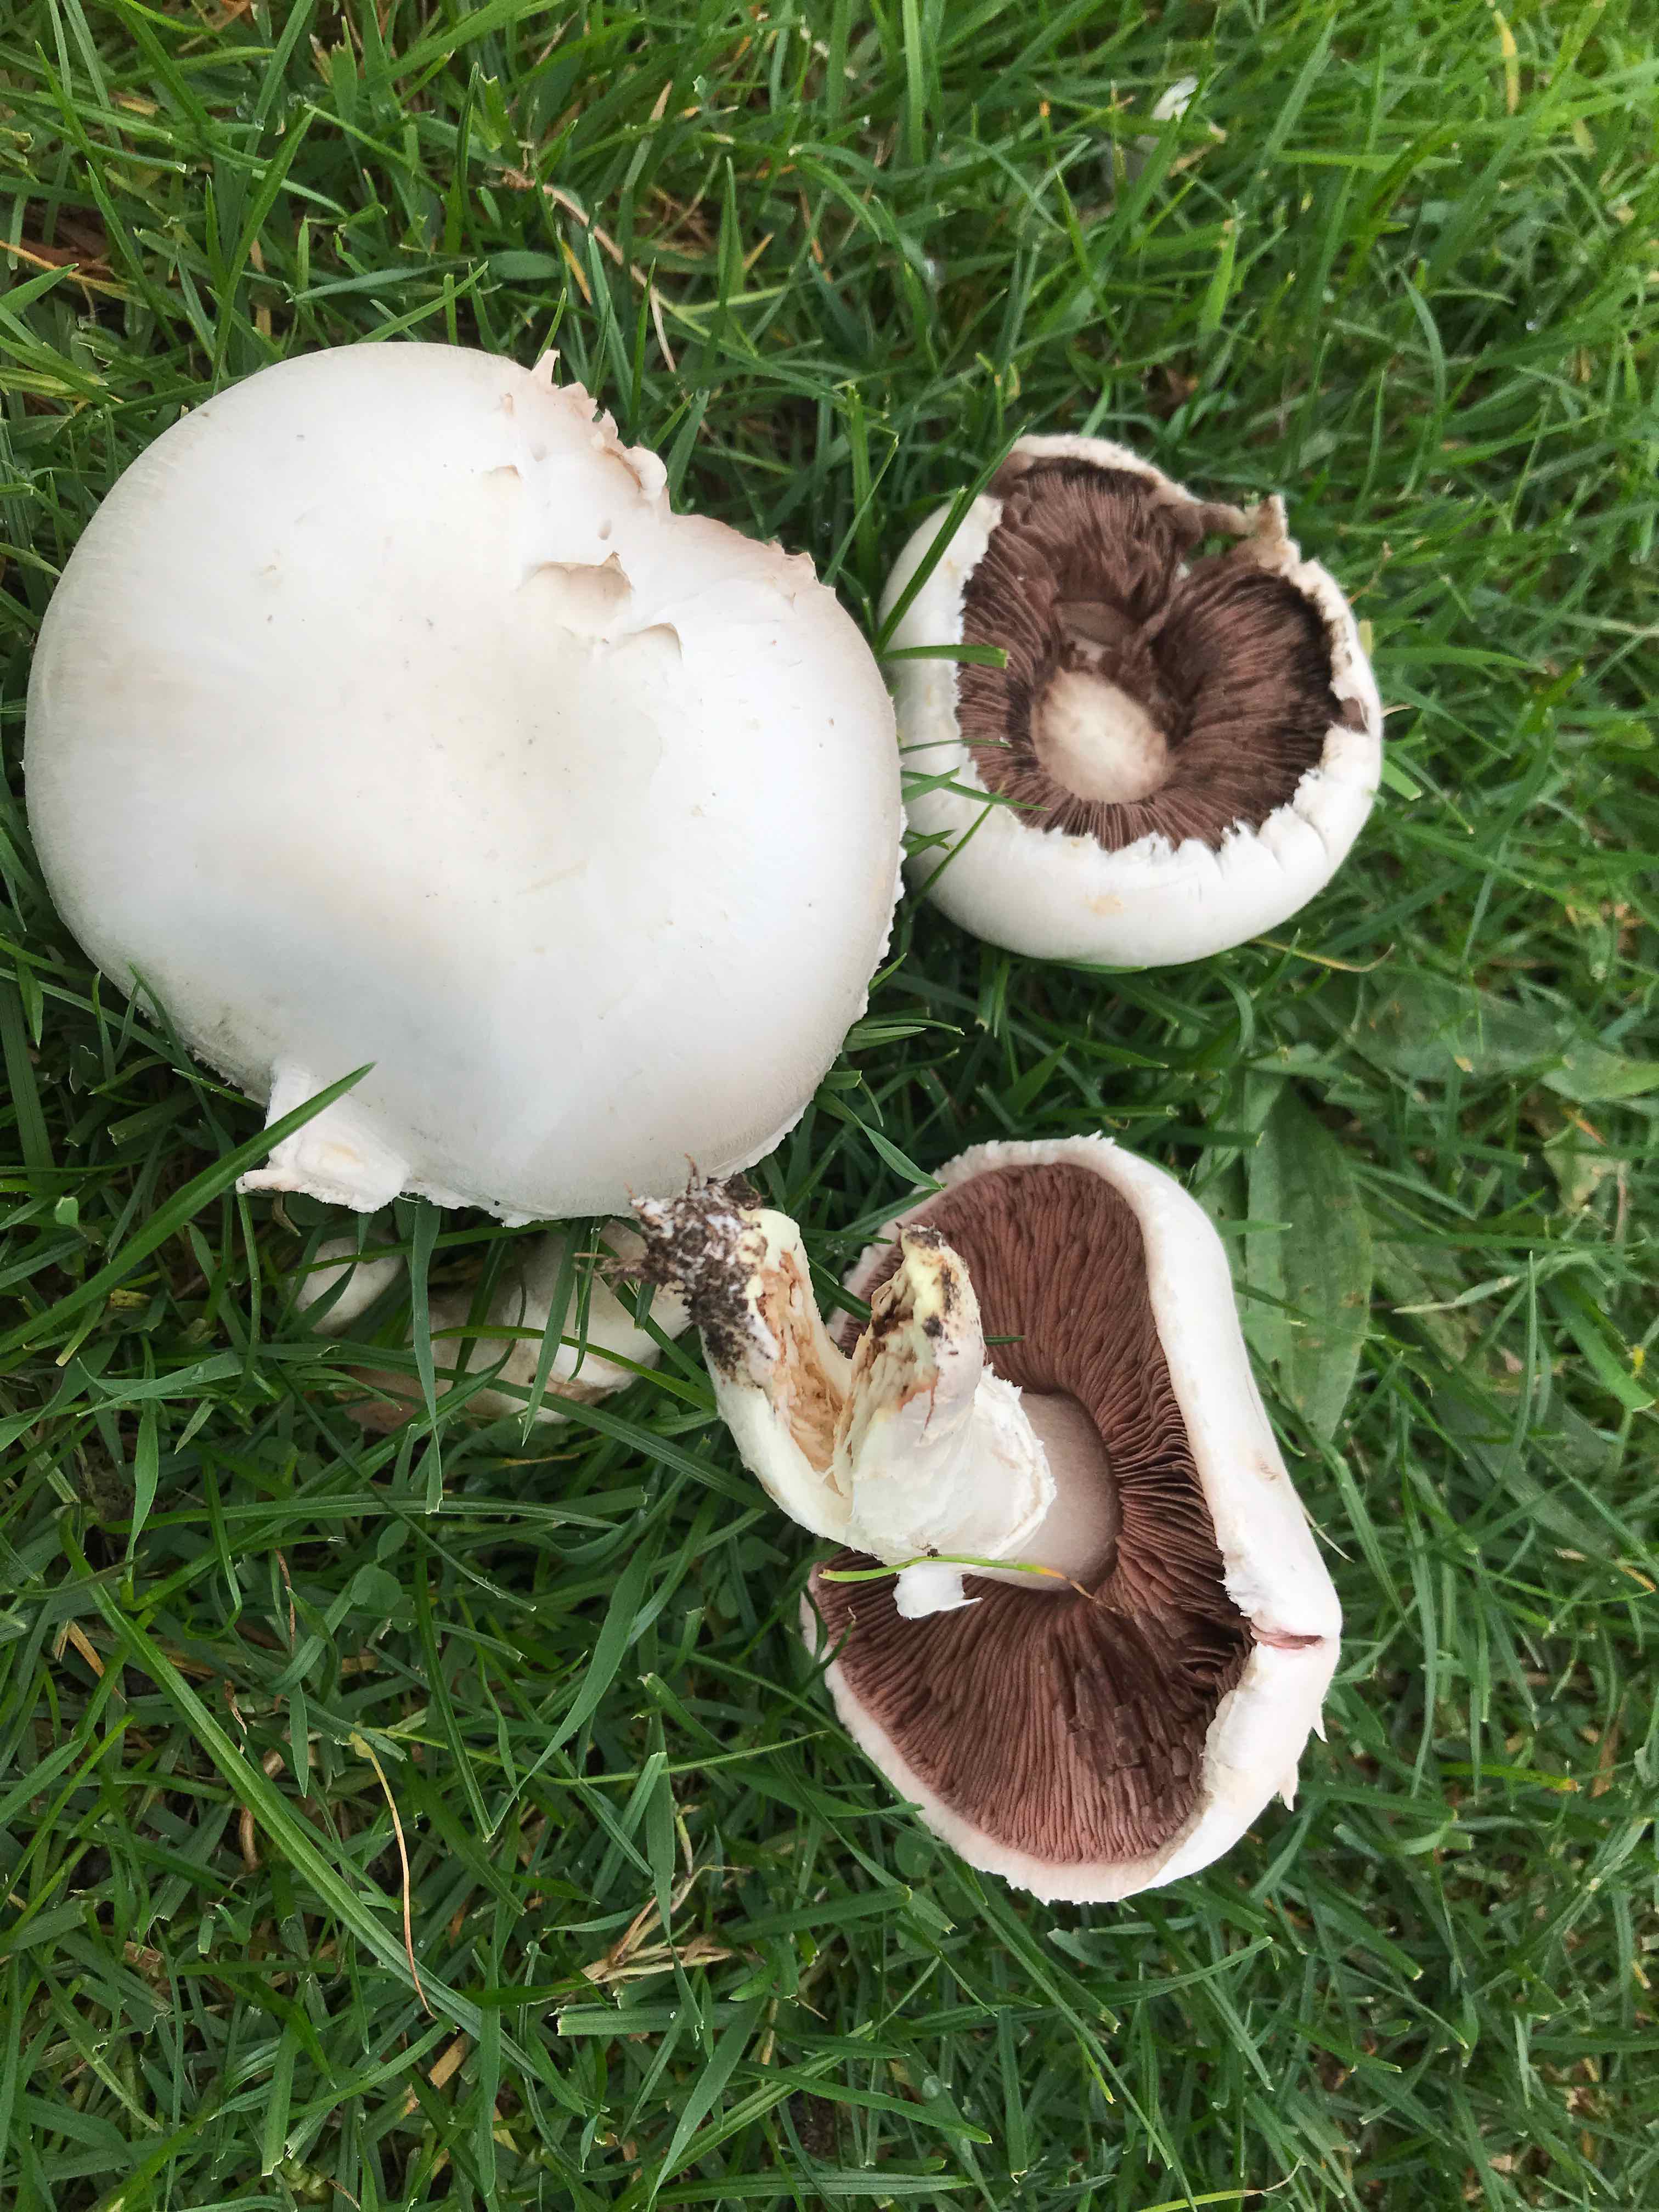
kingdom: Fungi
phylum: Basidiomycota
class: Agaricomycetes
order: Agaricales
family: Agaricaceae
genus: Agaricus
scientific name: Agaricus campestris
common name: mark-champignon
